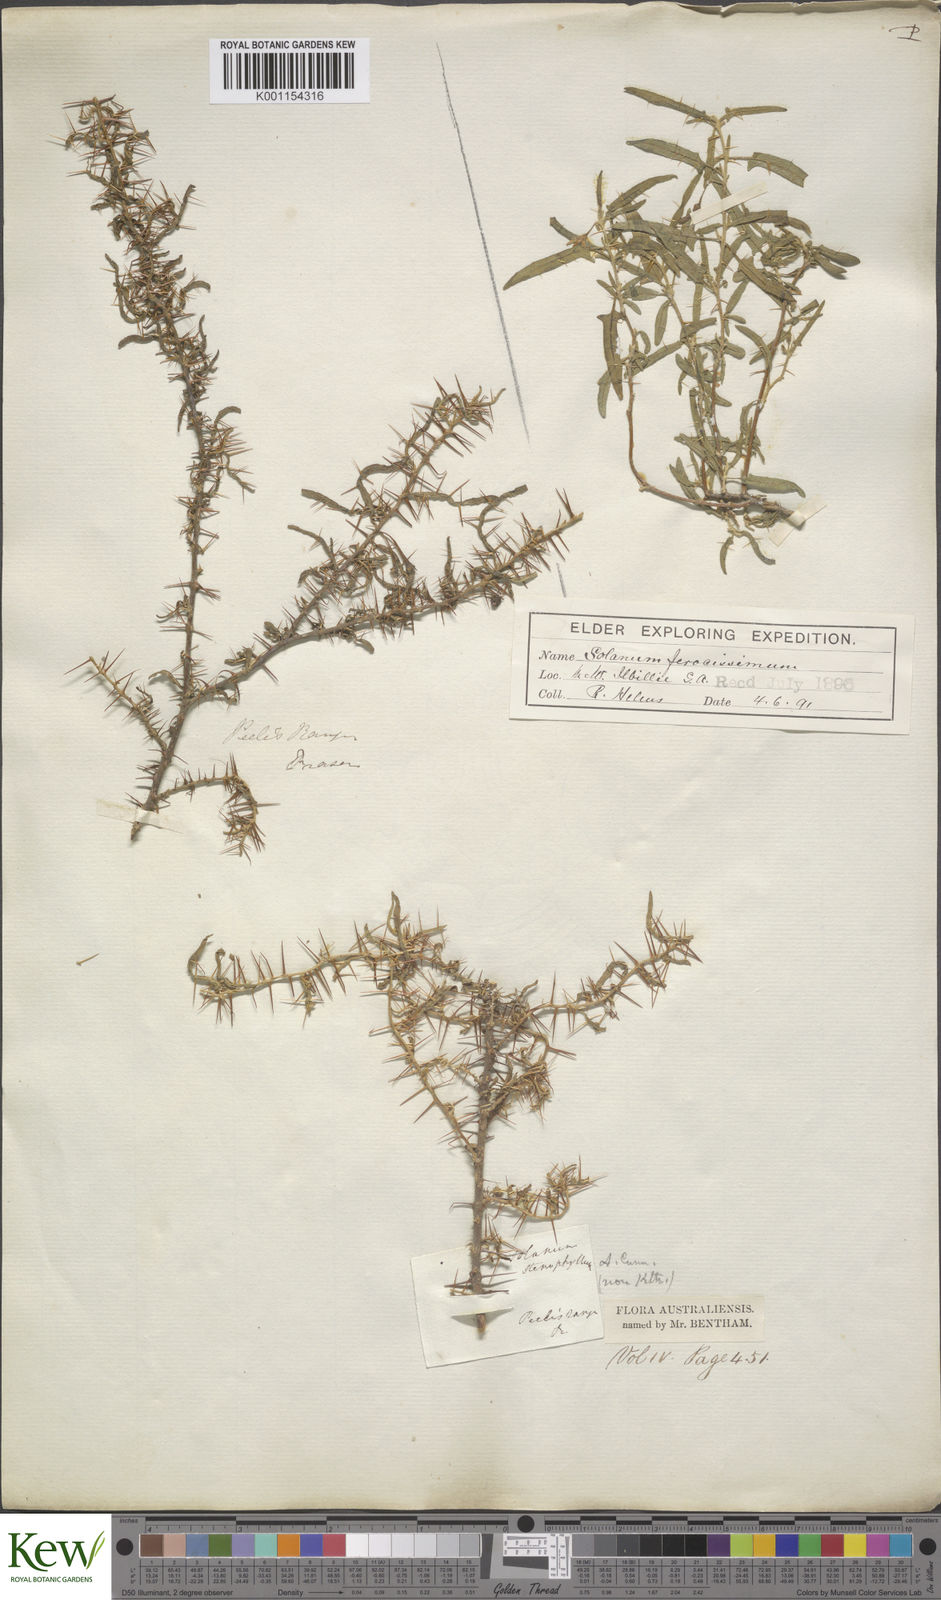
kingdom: Plantae
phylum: Tracheophyta
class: Magnoliopsida
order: Solanales
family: Solanaceae
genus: Solanum
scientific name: Solanum ferocissimum
